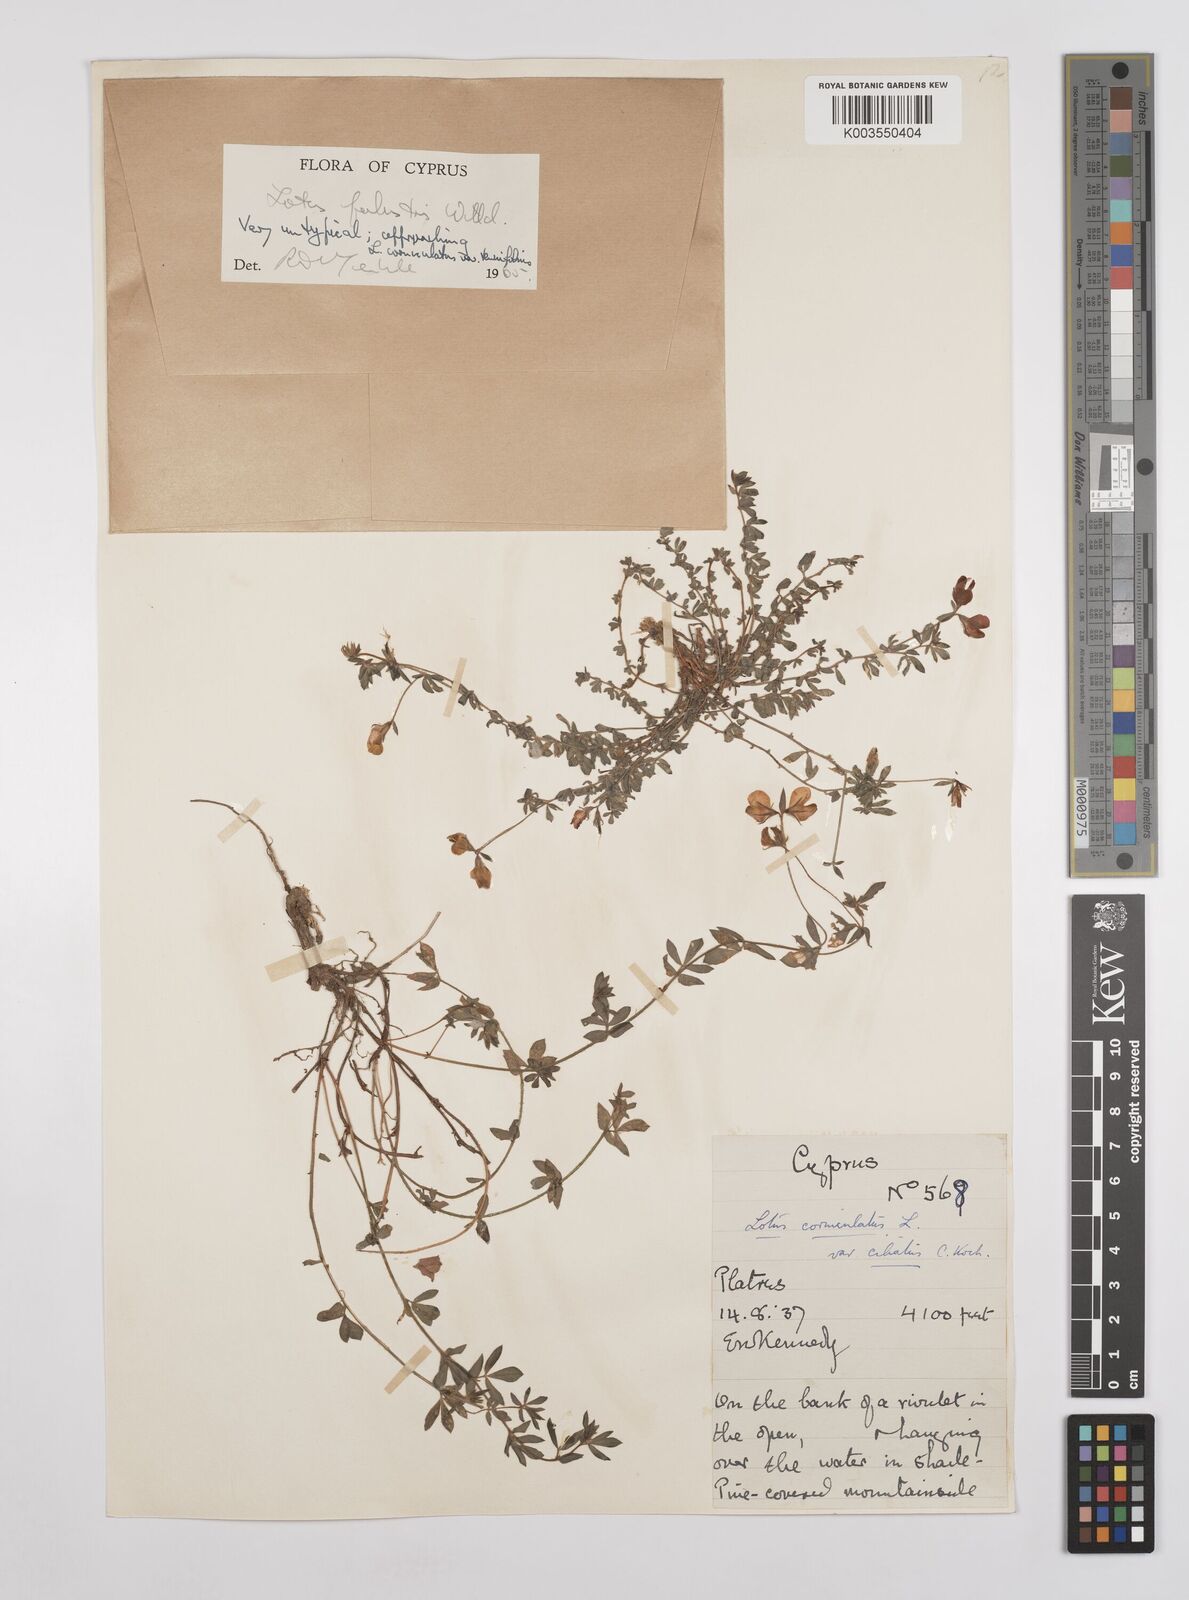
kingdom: Plantae
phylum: Tracheophyta
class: Magnoliopsida
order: Fabales
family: Fabaceae
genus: Lotus
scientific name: Lotus palustris
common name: Large birds-foot trefoil
